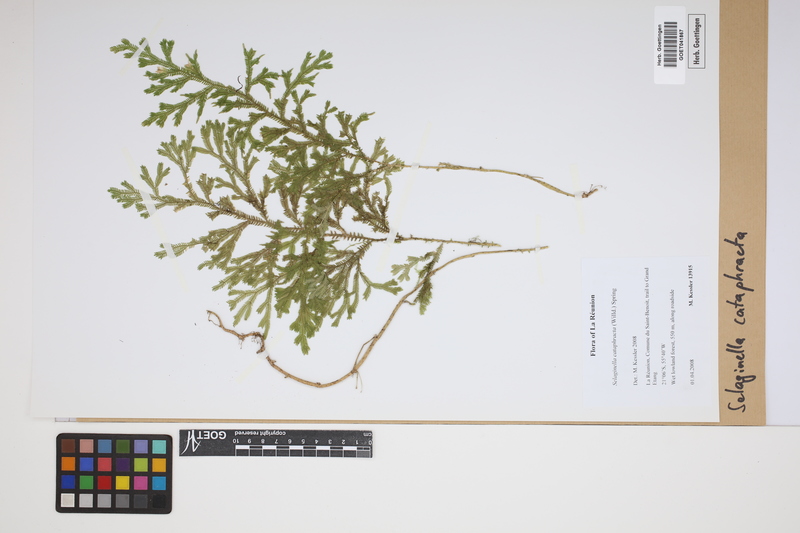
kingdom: Plantae
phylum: Tracheophyta
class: Lycopodiopsida
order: Selaginellales
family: Selaginellaceae
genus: Selaginella
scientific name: Selaginella cataphracta
